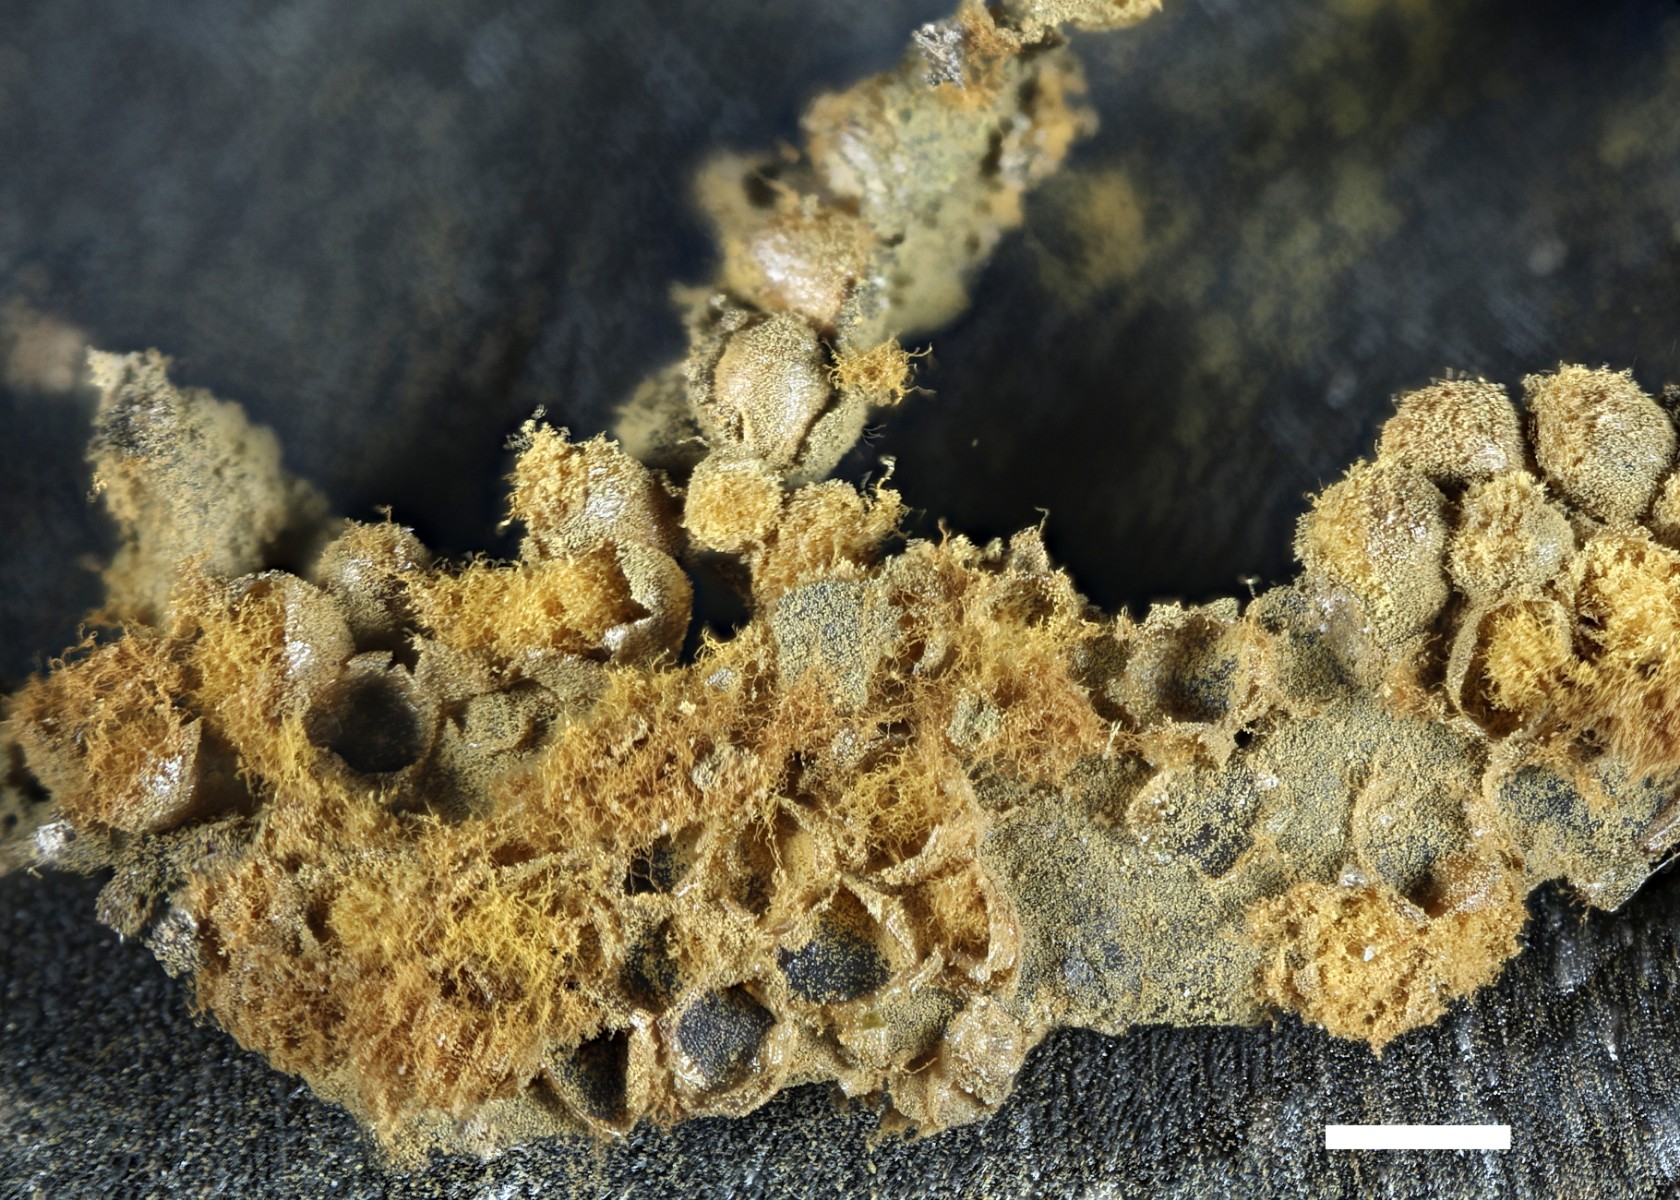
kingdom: Protozoa
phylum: Mycetozoa
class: Myxomycetes
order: Trichiales
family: Trichiaceae
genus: Trichia
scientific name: Trichia varia
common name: foranderlig hårbold
